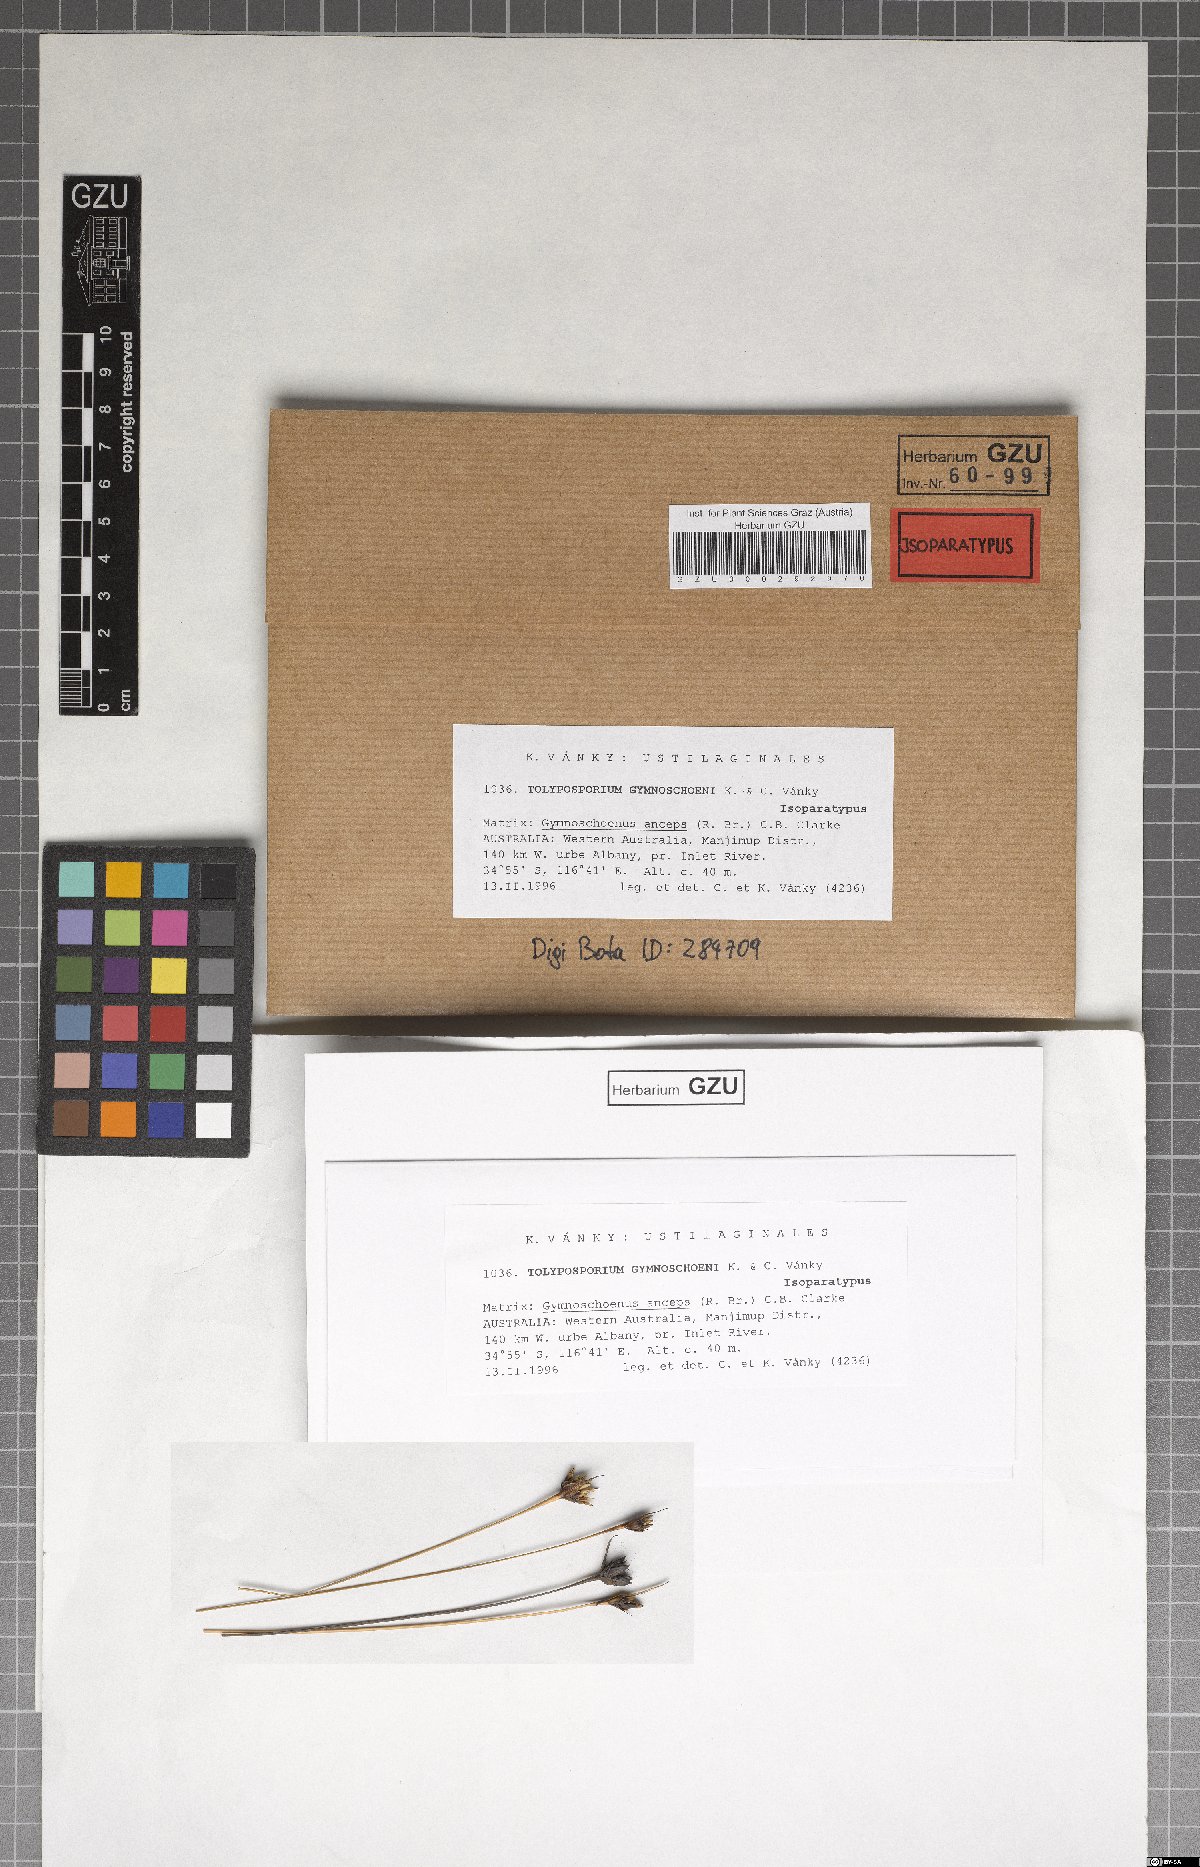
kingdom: Fungi
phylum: Basidiomycota
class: Ustilaginomycetes
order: Ustilaginales
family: Anthracoideaceae
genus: Moreaua
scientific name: Moreaua gymnoschoeni
